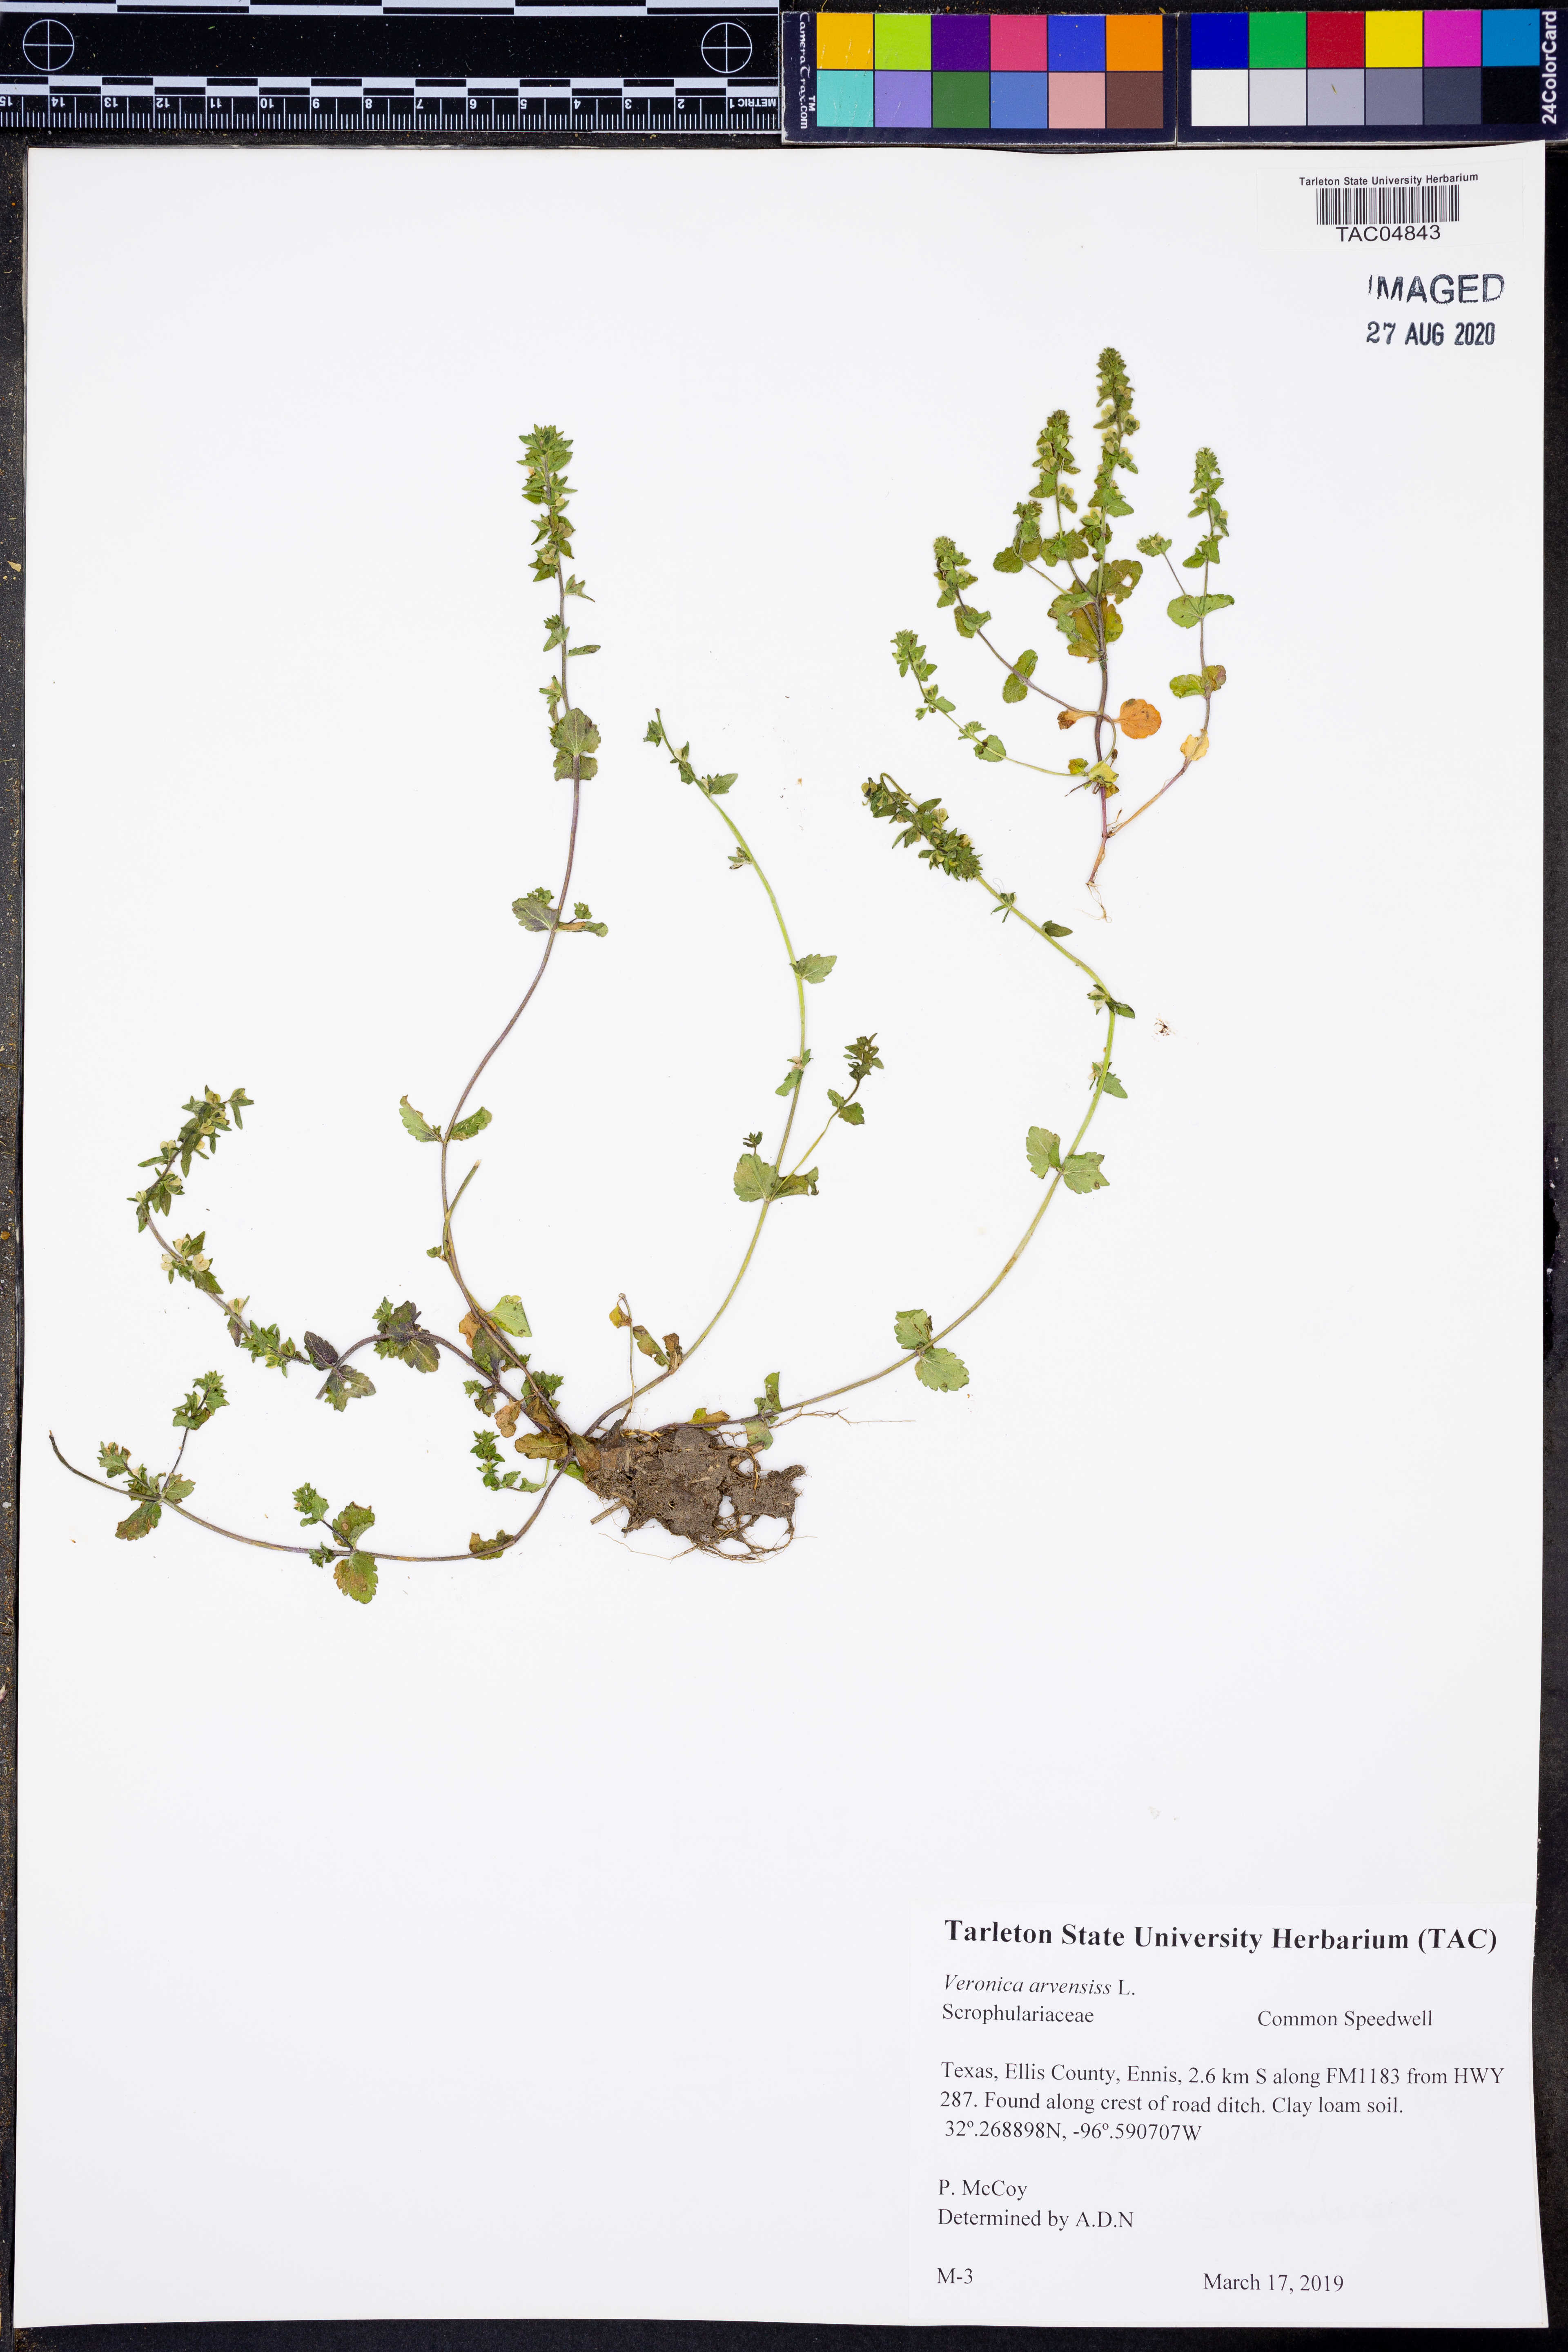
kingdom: Plantae
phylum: Tracheophyta
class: Magnoliopsida
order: Lamiales
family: Plantaginaceae
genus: Veronica
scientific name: Veronica arvensis
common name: Corn speedwell
